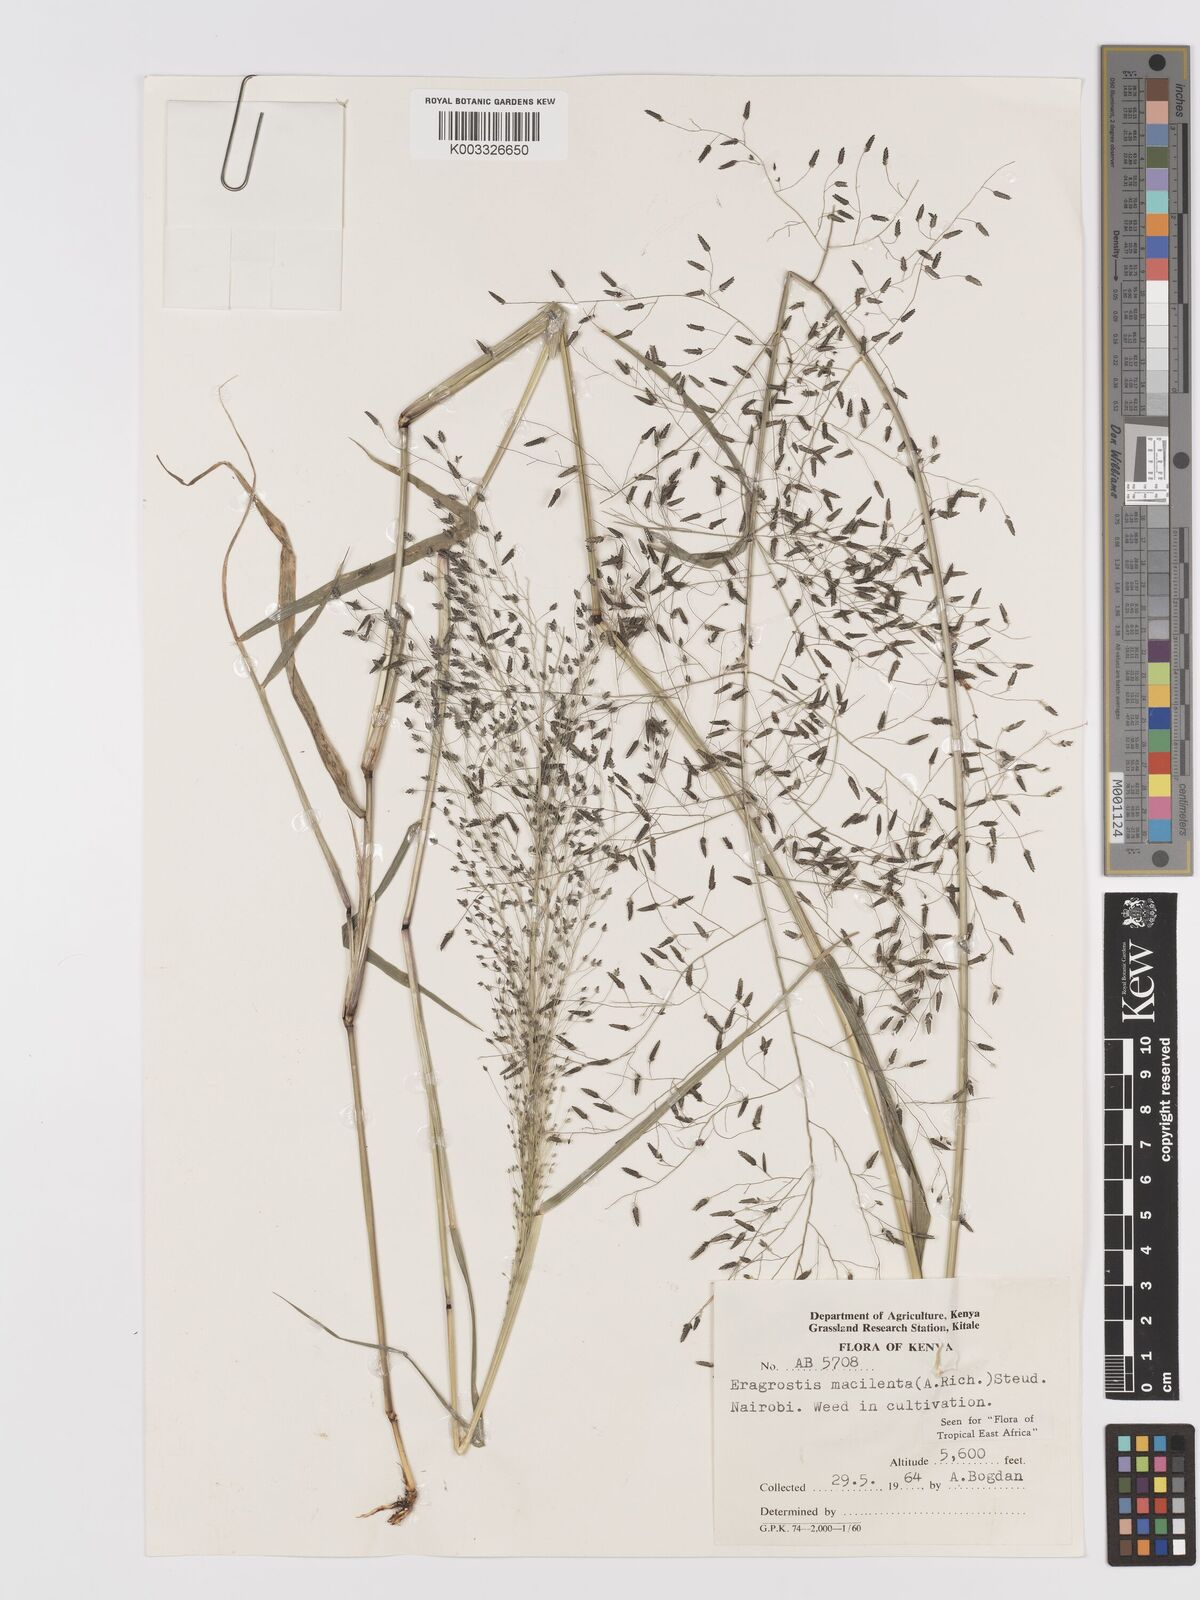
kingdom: Plantae
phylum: Tracheophyta
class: Liliopsida
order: Poales
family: Poaceae
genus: Eragrostis
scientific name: Eragrostis macilenta
